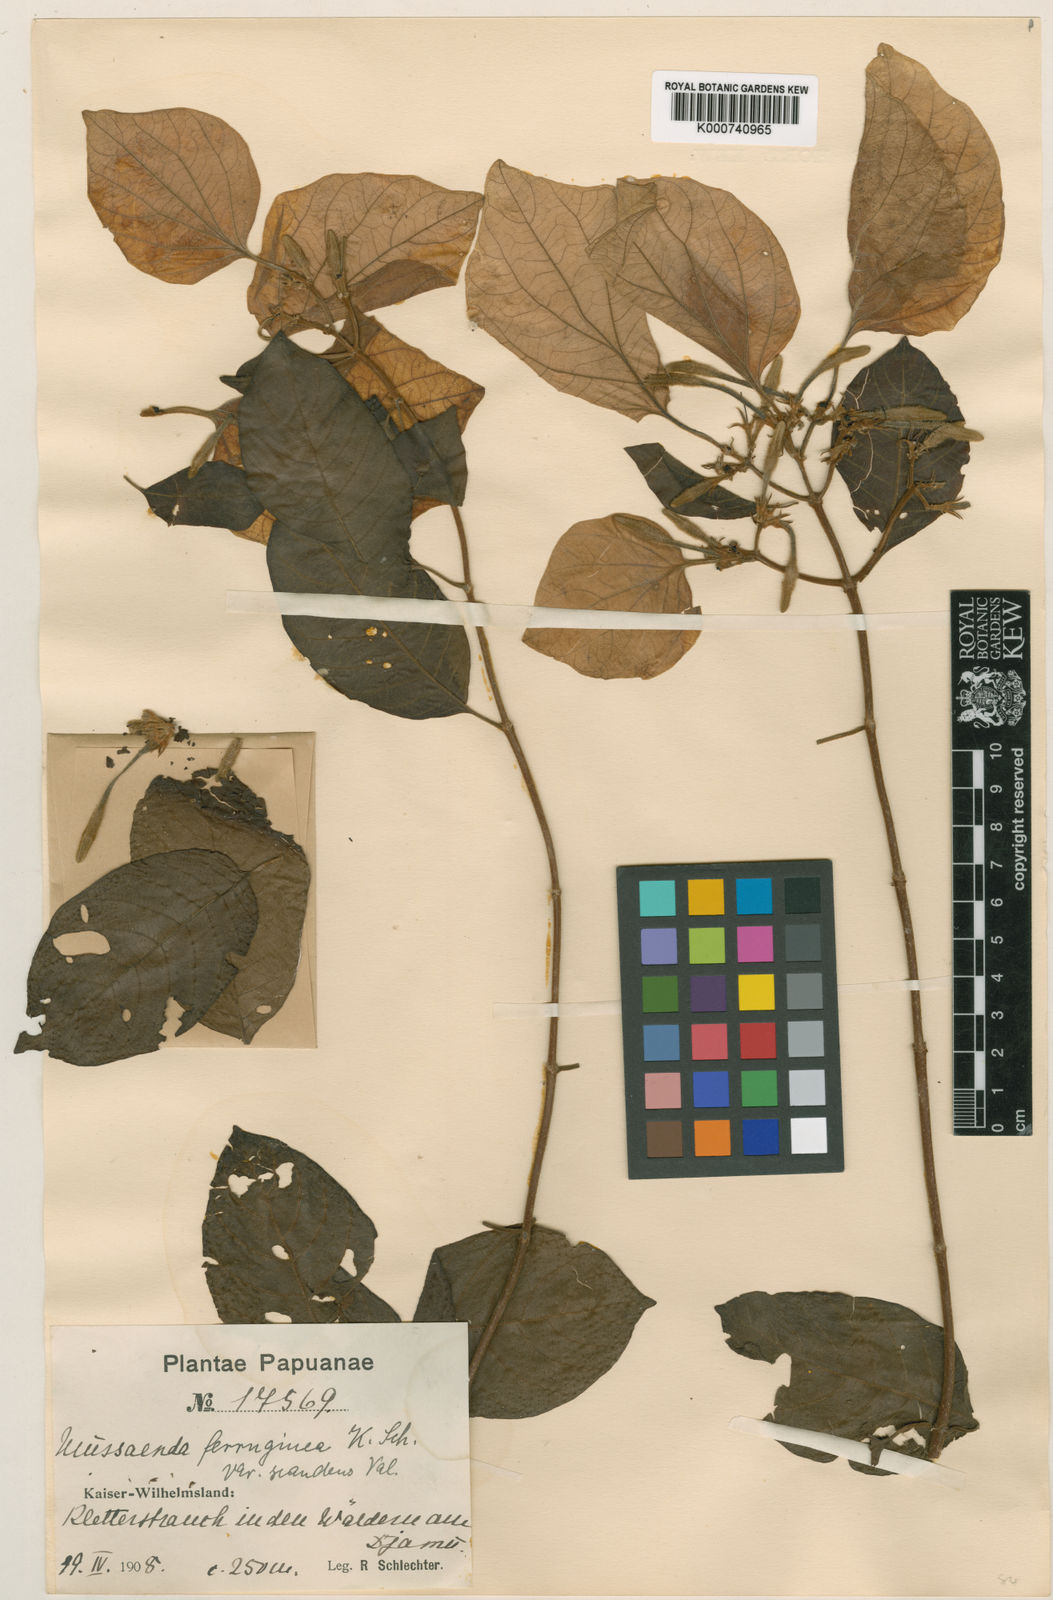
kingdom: Plantae
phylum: Tracheophyta
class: Magnoliopsida
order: Gentianales
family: Rubiaceae
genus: Mussaenda
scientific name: Mussaenda ferruginea
